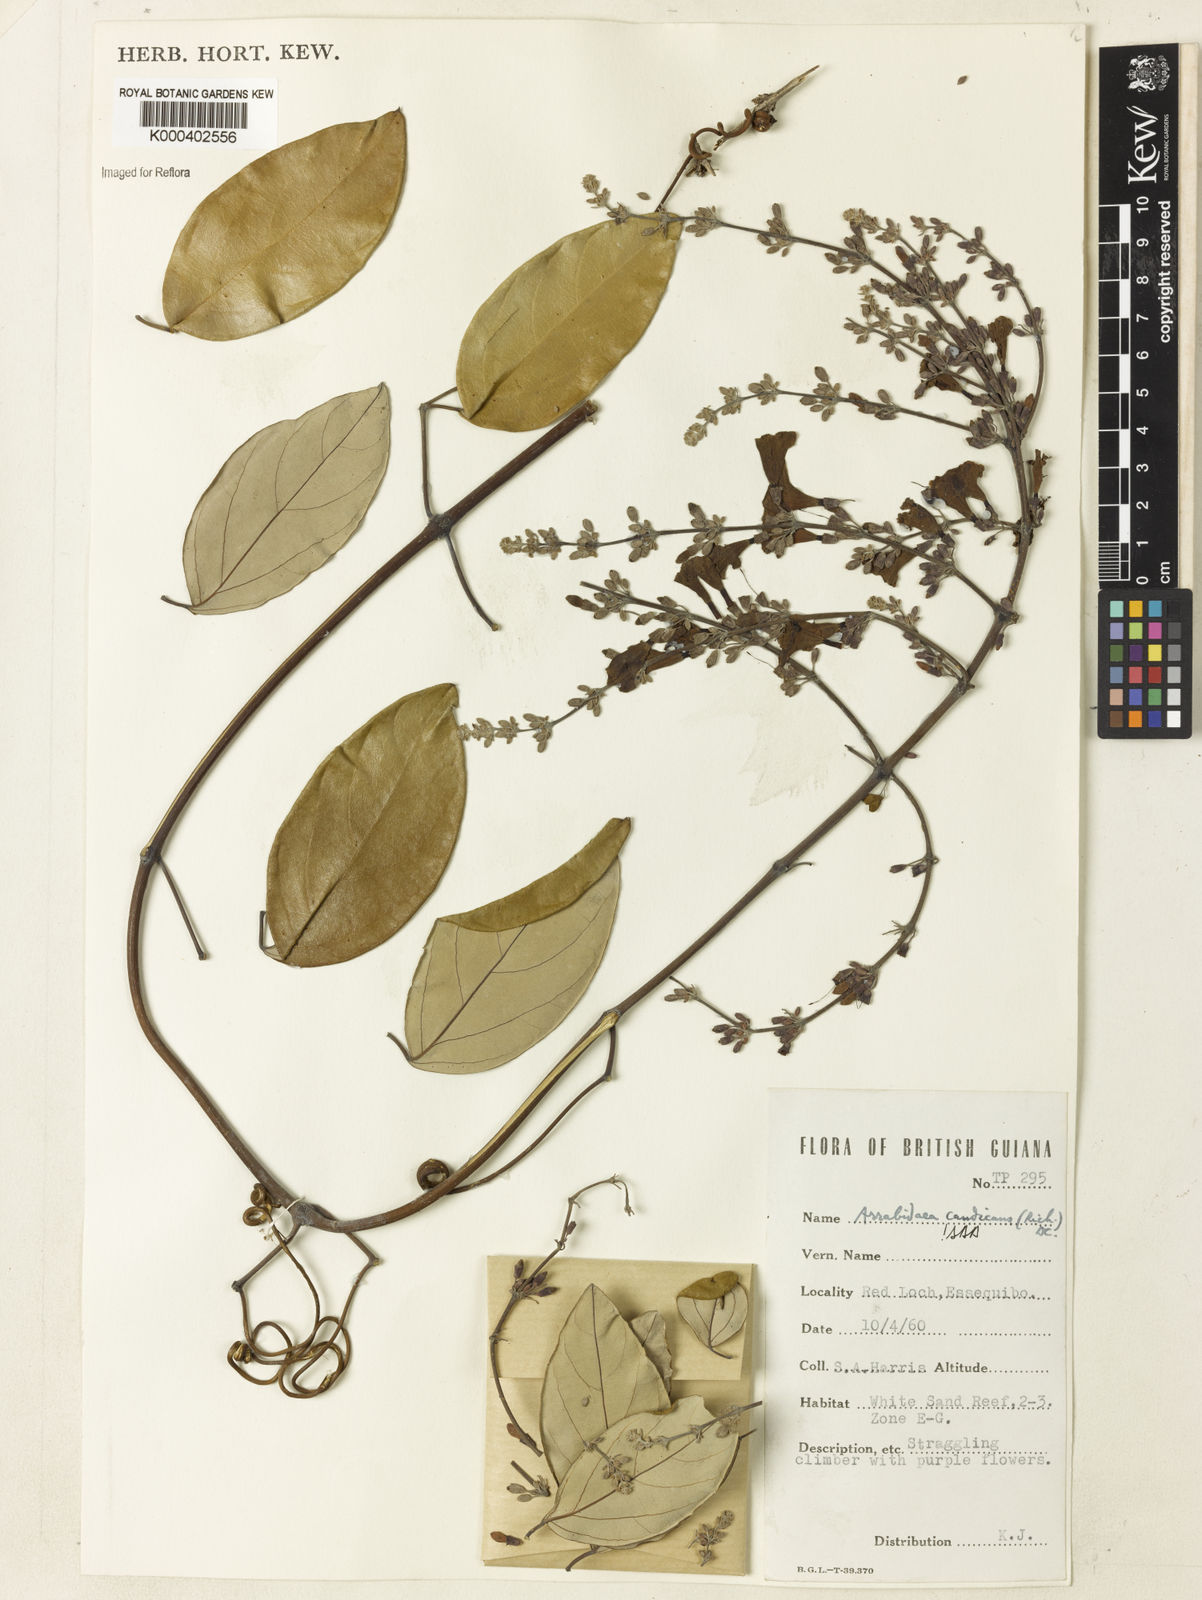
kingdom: Plantae
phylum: Tracheophyta
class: Magnoliopsida
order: Lamiales
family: Bignoniaceae
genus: Fridericia
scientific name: Fridericia candicans
